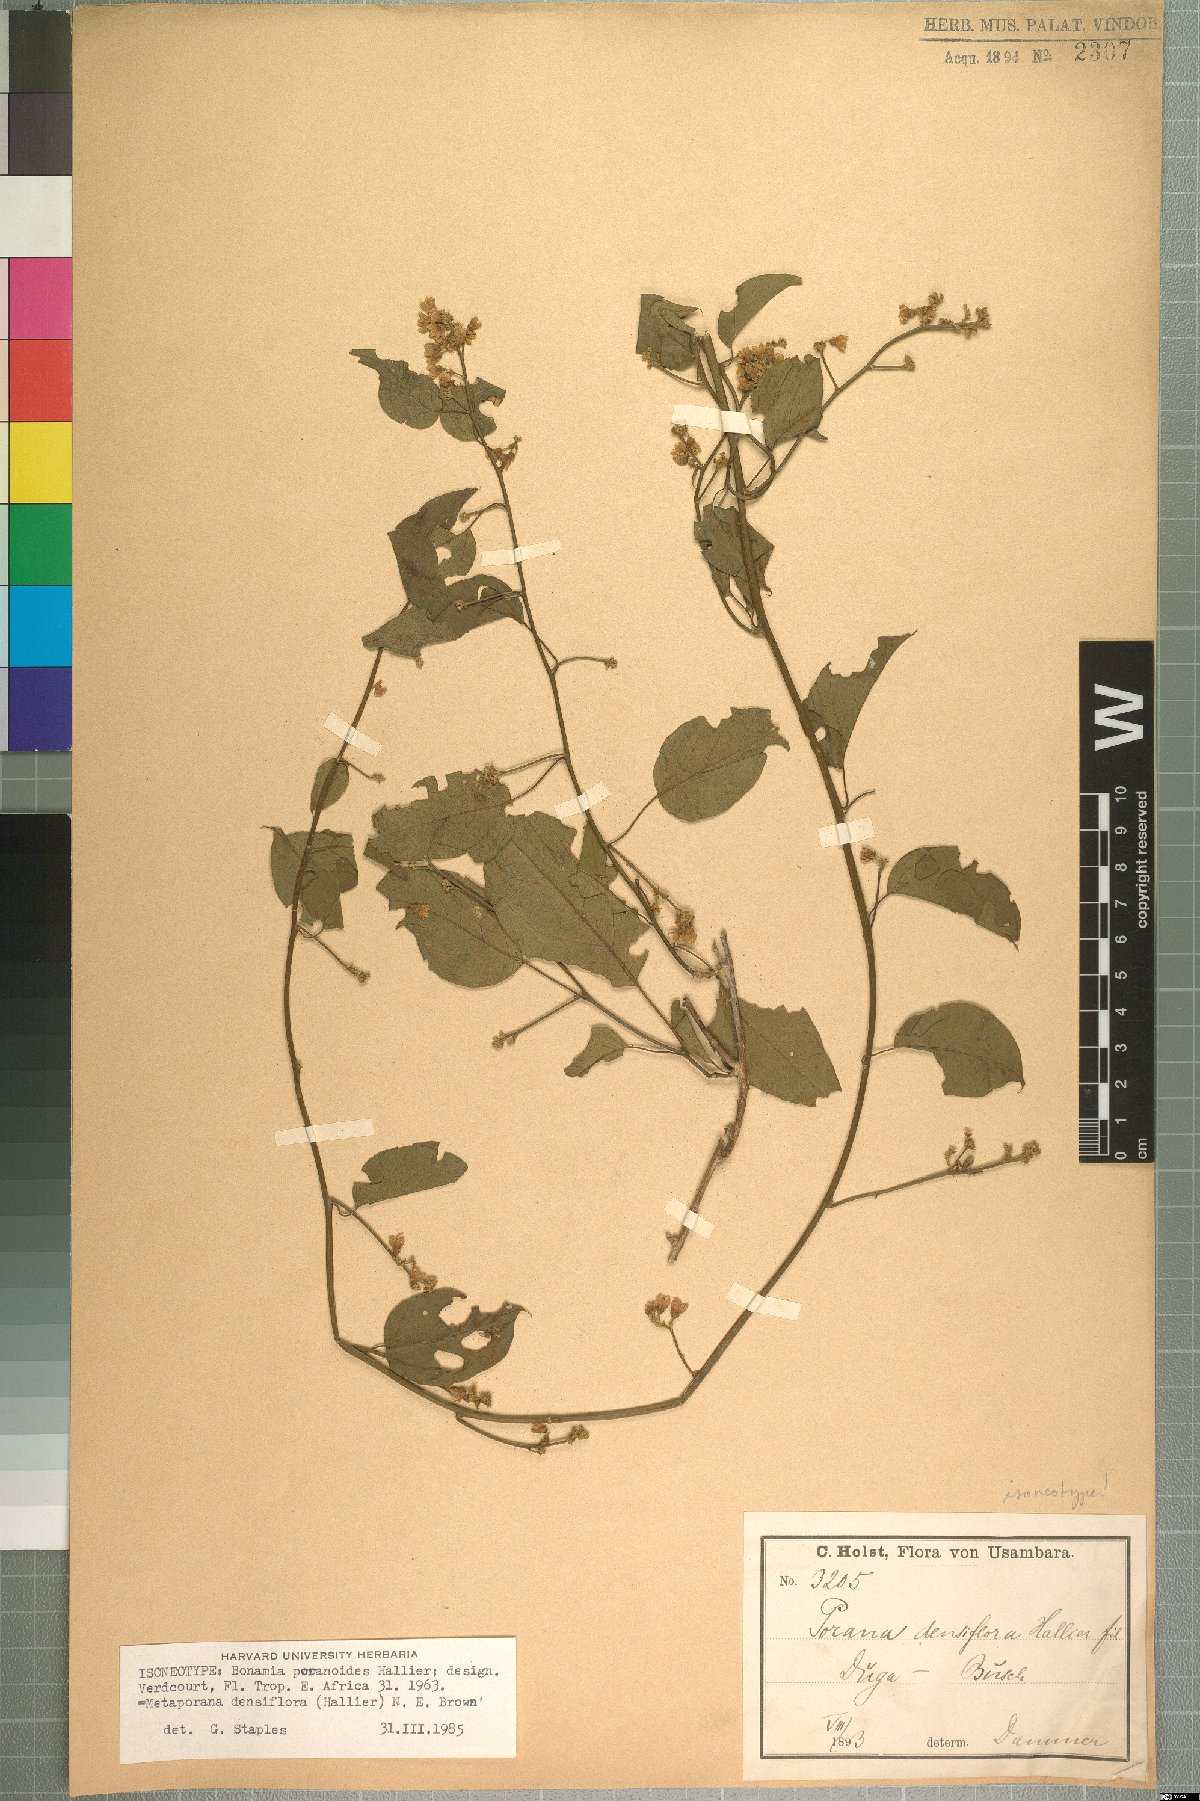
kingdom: Plantae
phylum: Tracheophyta
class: Magnoliopsida
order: Solanales
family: Convolvulaceae
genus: Metaporana
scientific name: Metaporana densiflora
